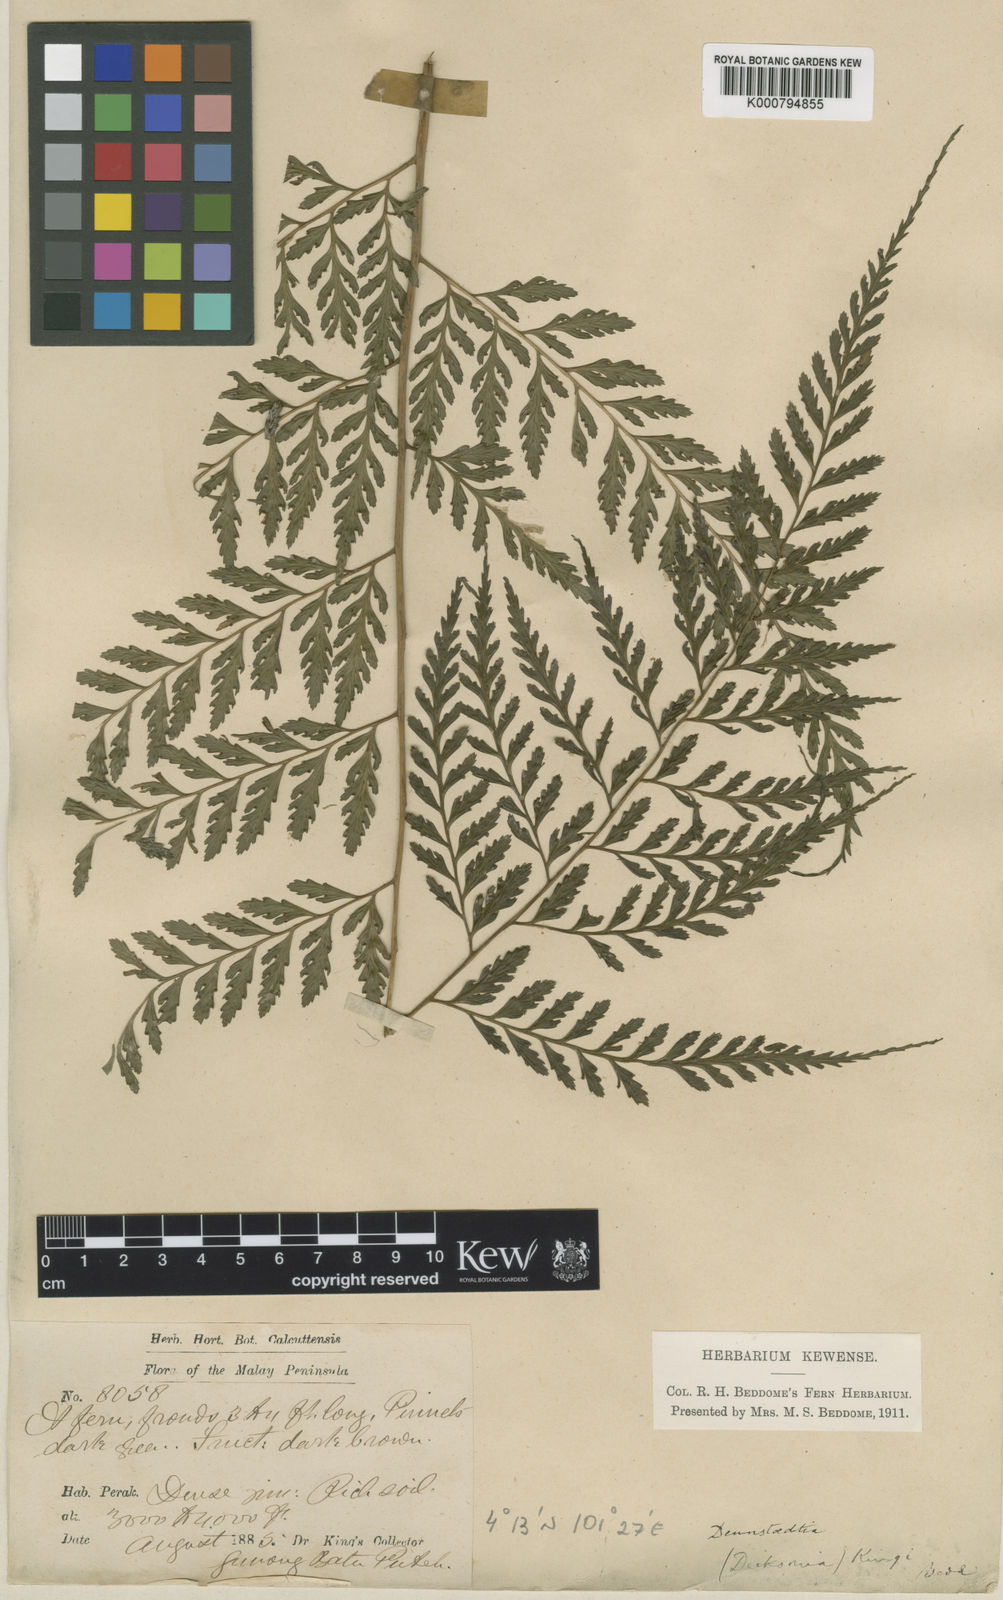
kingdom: Plantae
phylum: Tracheophyta
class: Polypodiopsida
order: Polypodiales
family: Saccolomataceae
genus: Orthiopteris
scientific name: Orthiopteris campylura
